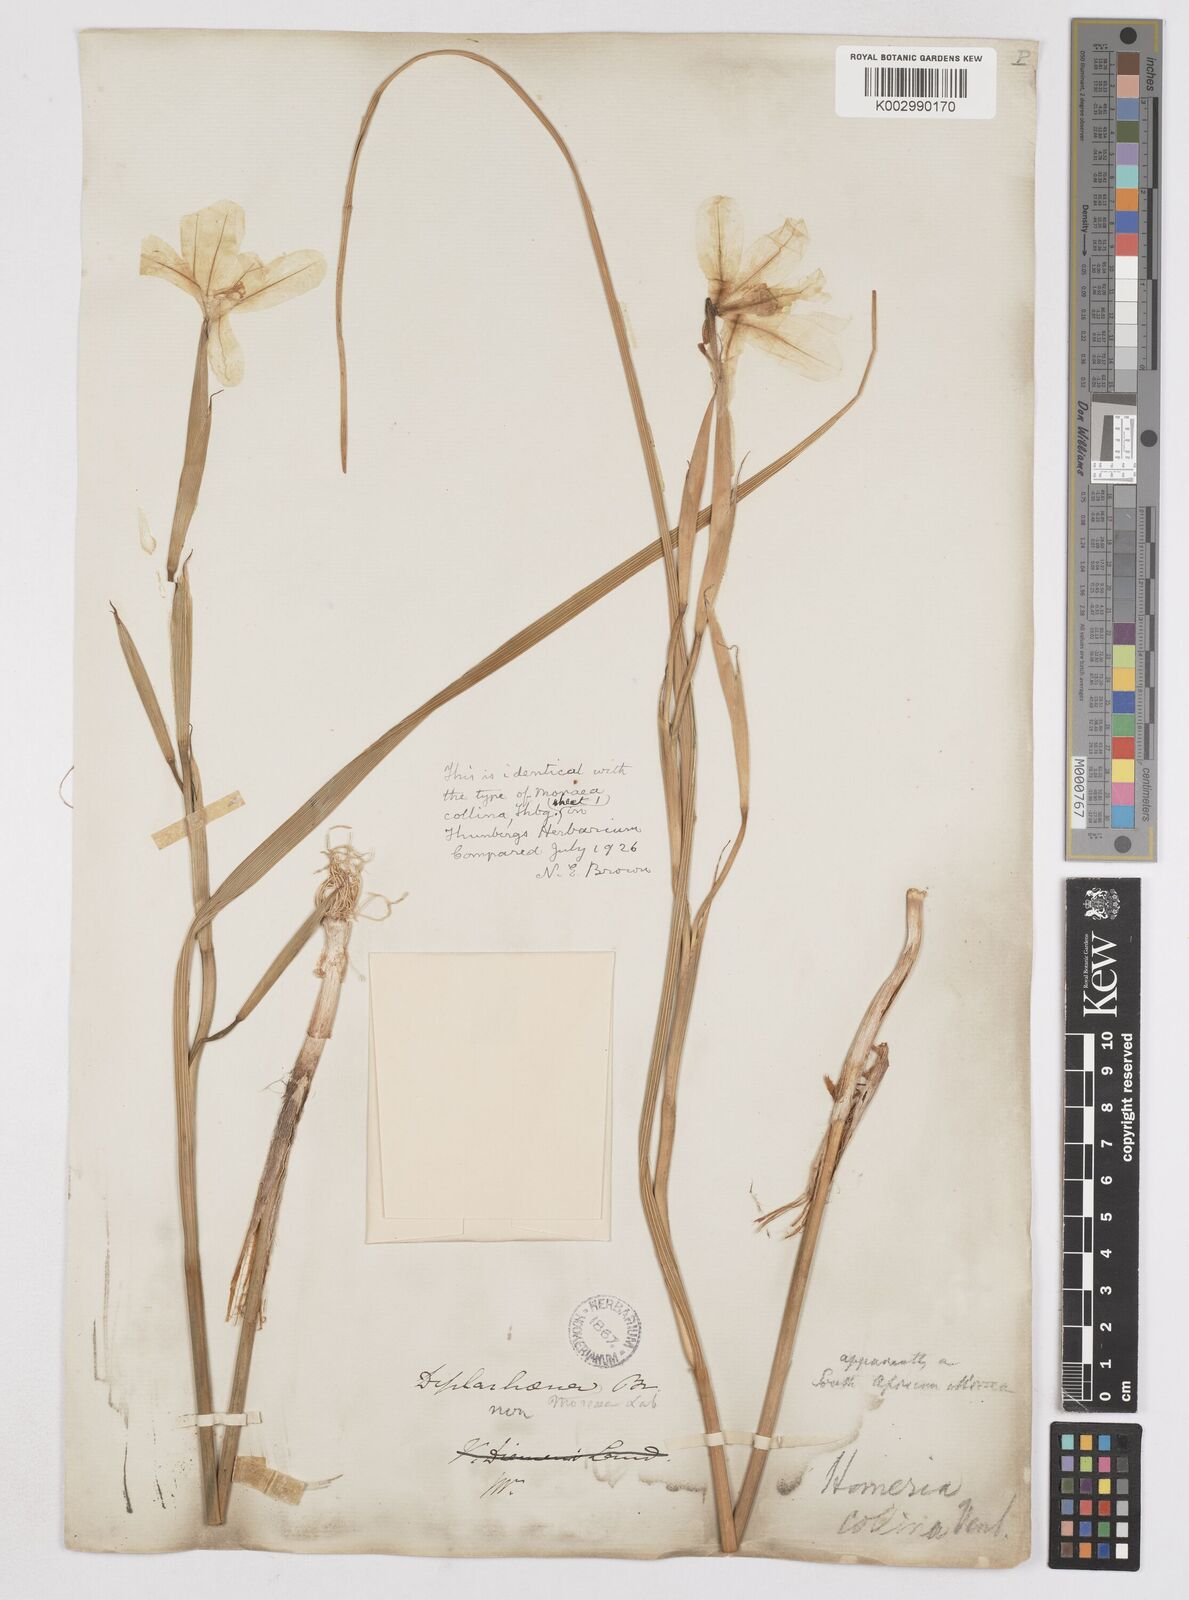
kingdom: Plantae
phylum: Tracheophyta
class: Liliopsida
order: Asparagales
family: Iridaceae
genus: Moraea
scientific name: Moraea collina
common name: Cape-tulip
